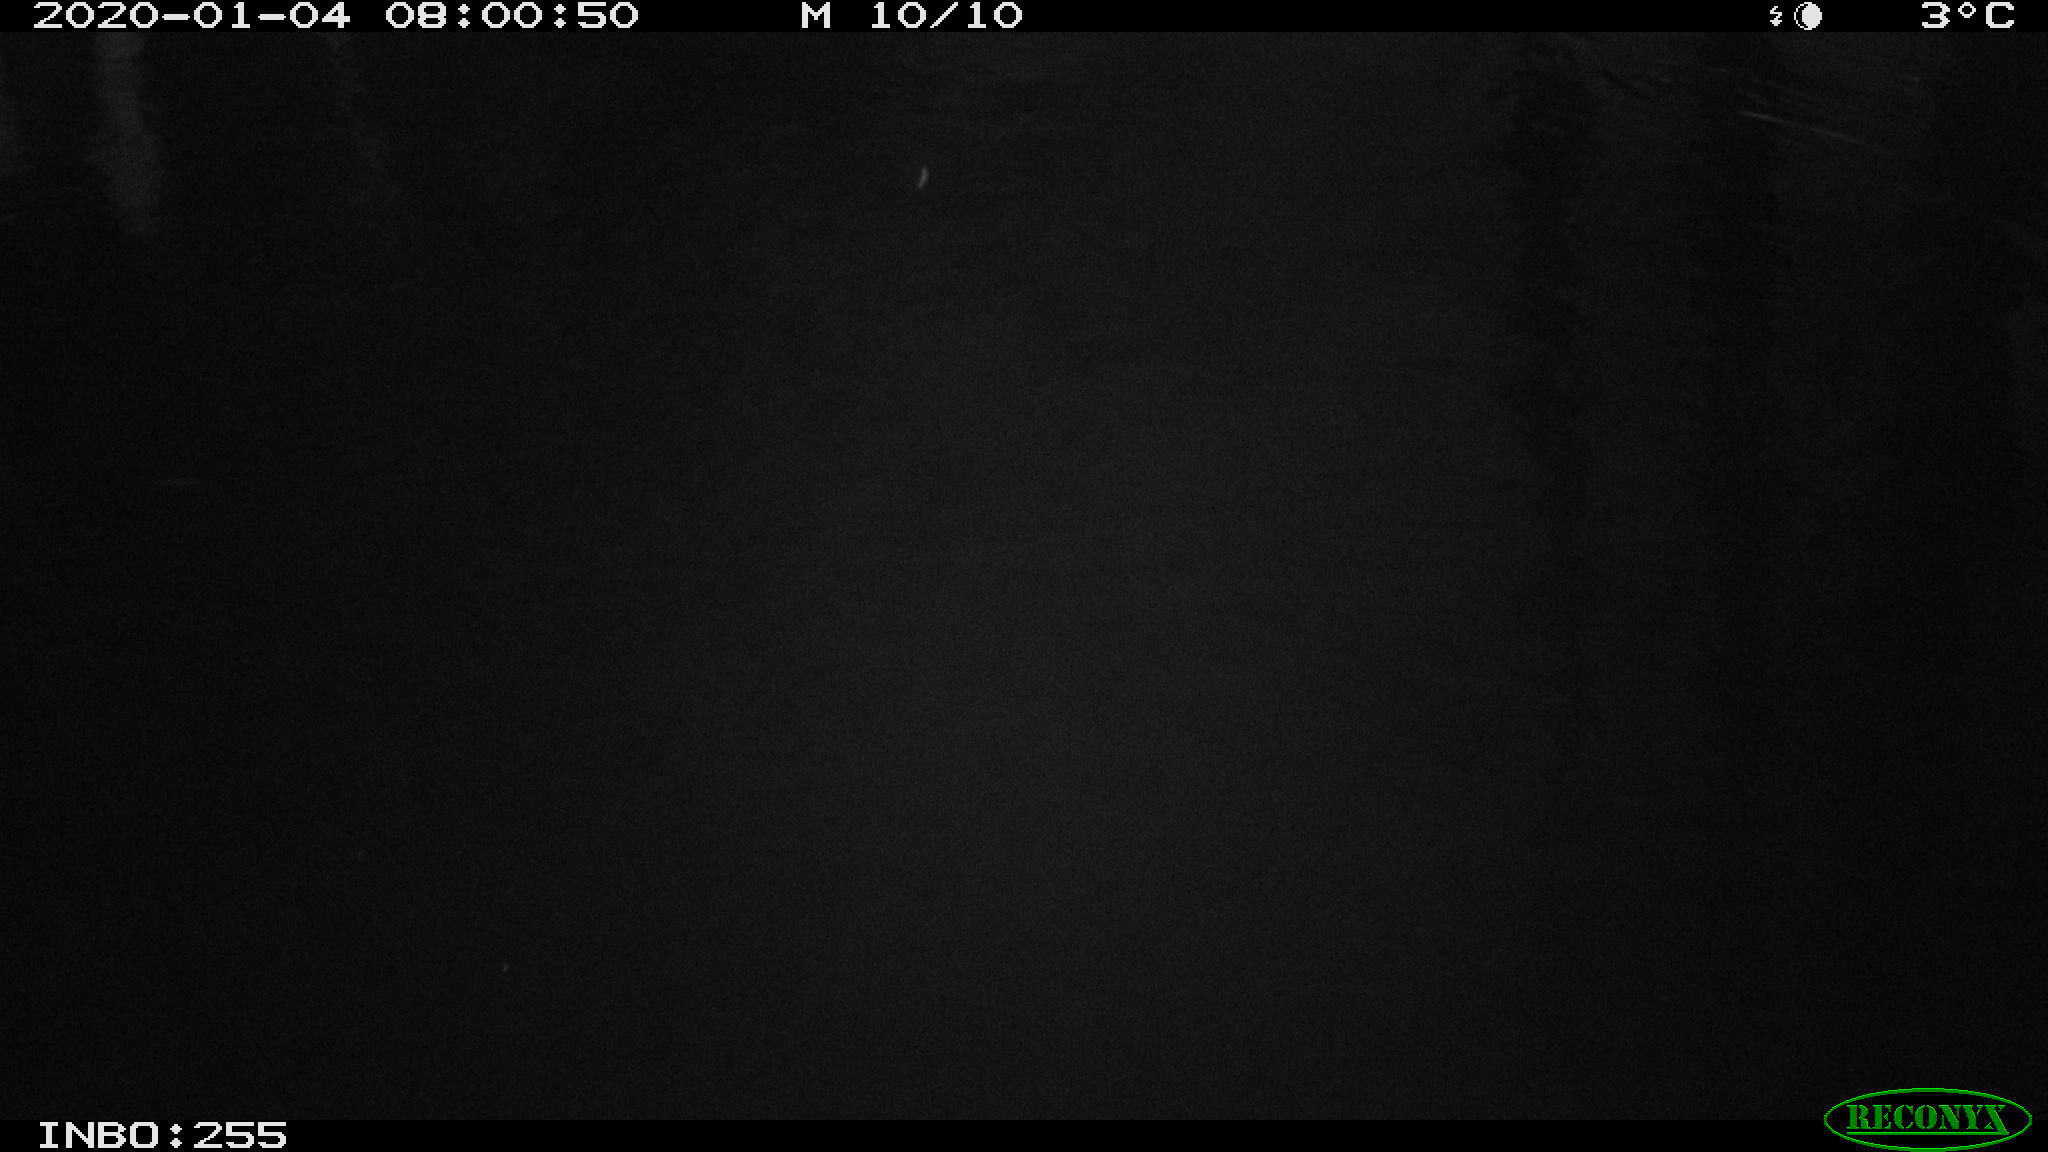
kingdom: Animalia
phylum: Chordata
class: Aves
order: Gruiformes
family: Rallidae
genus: Gallinula
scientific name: Gallinula chloropus
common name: Common moorhen
